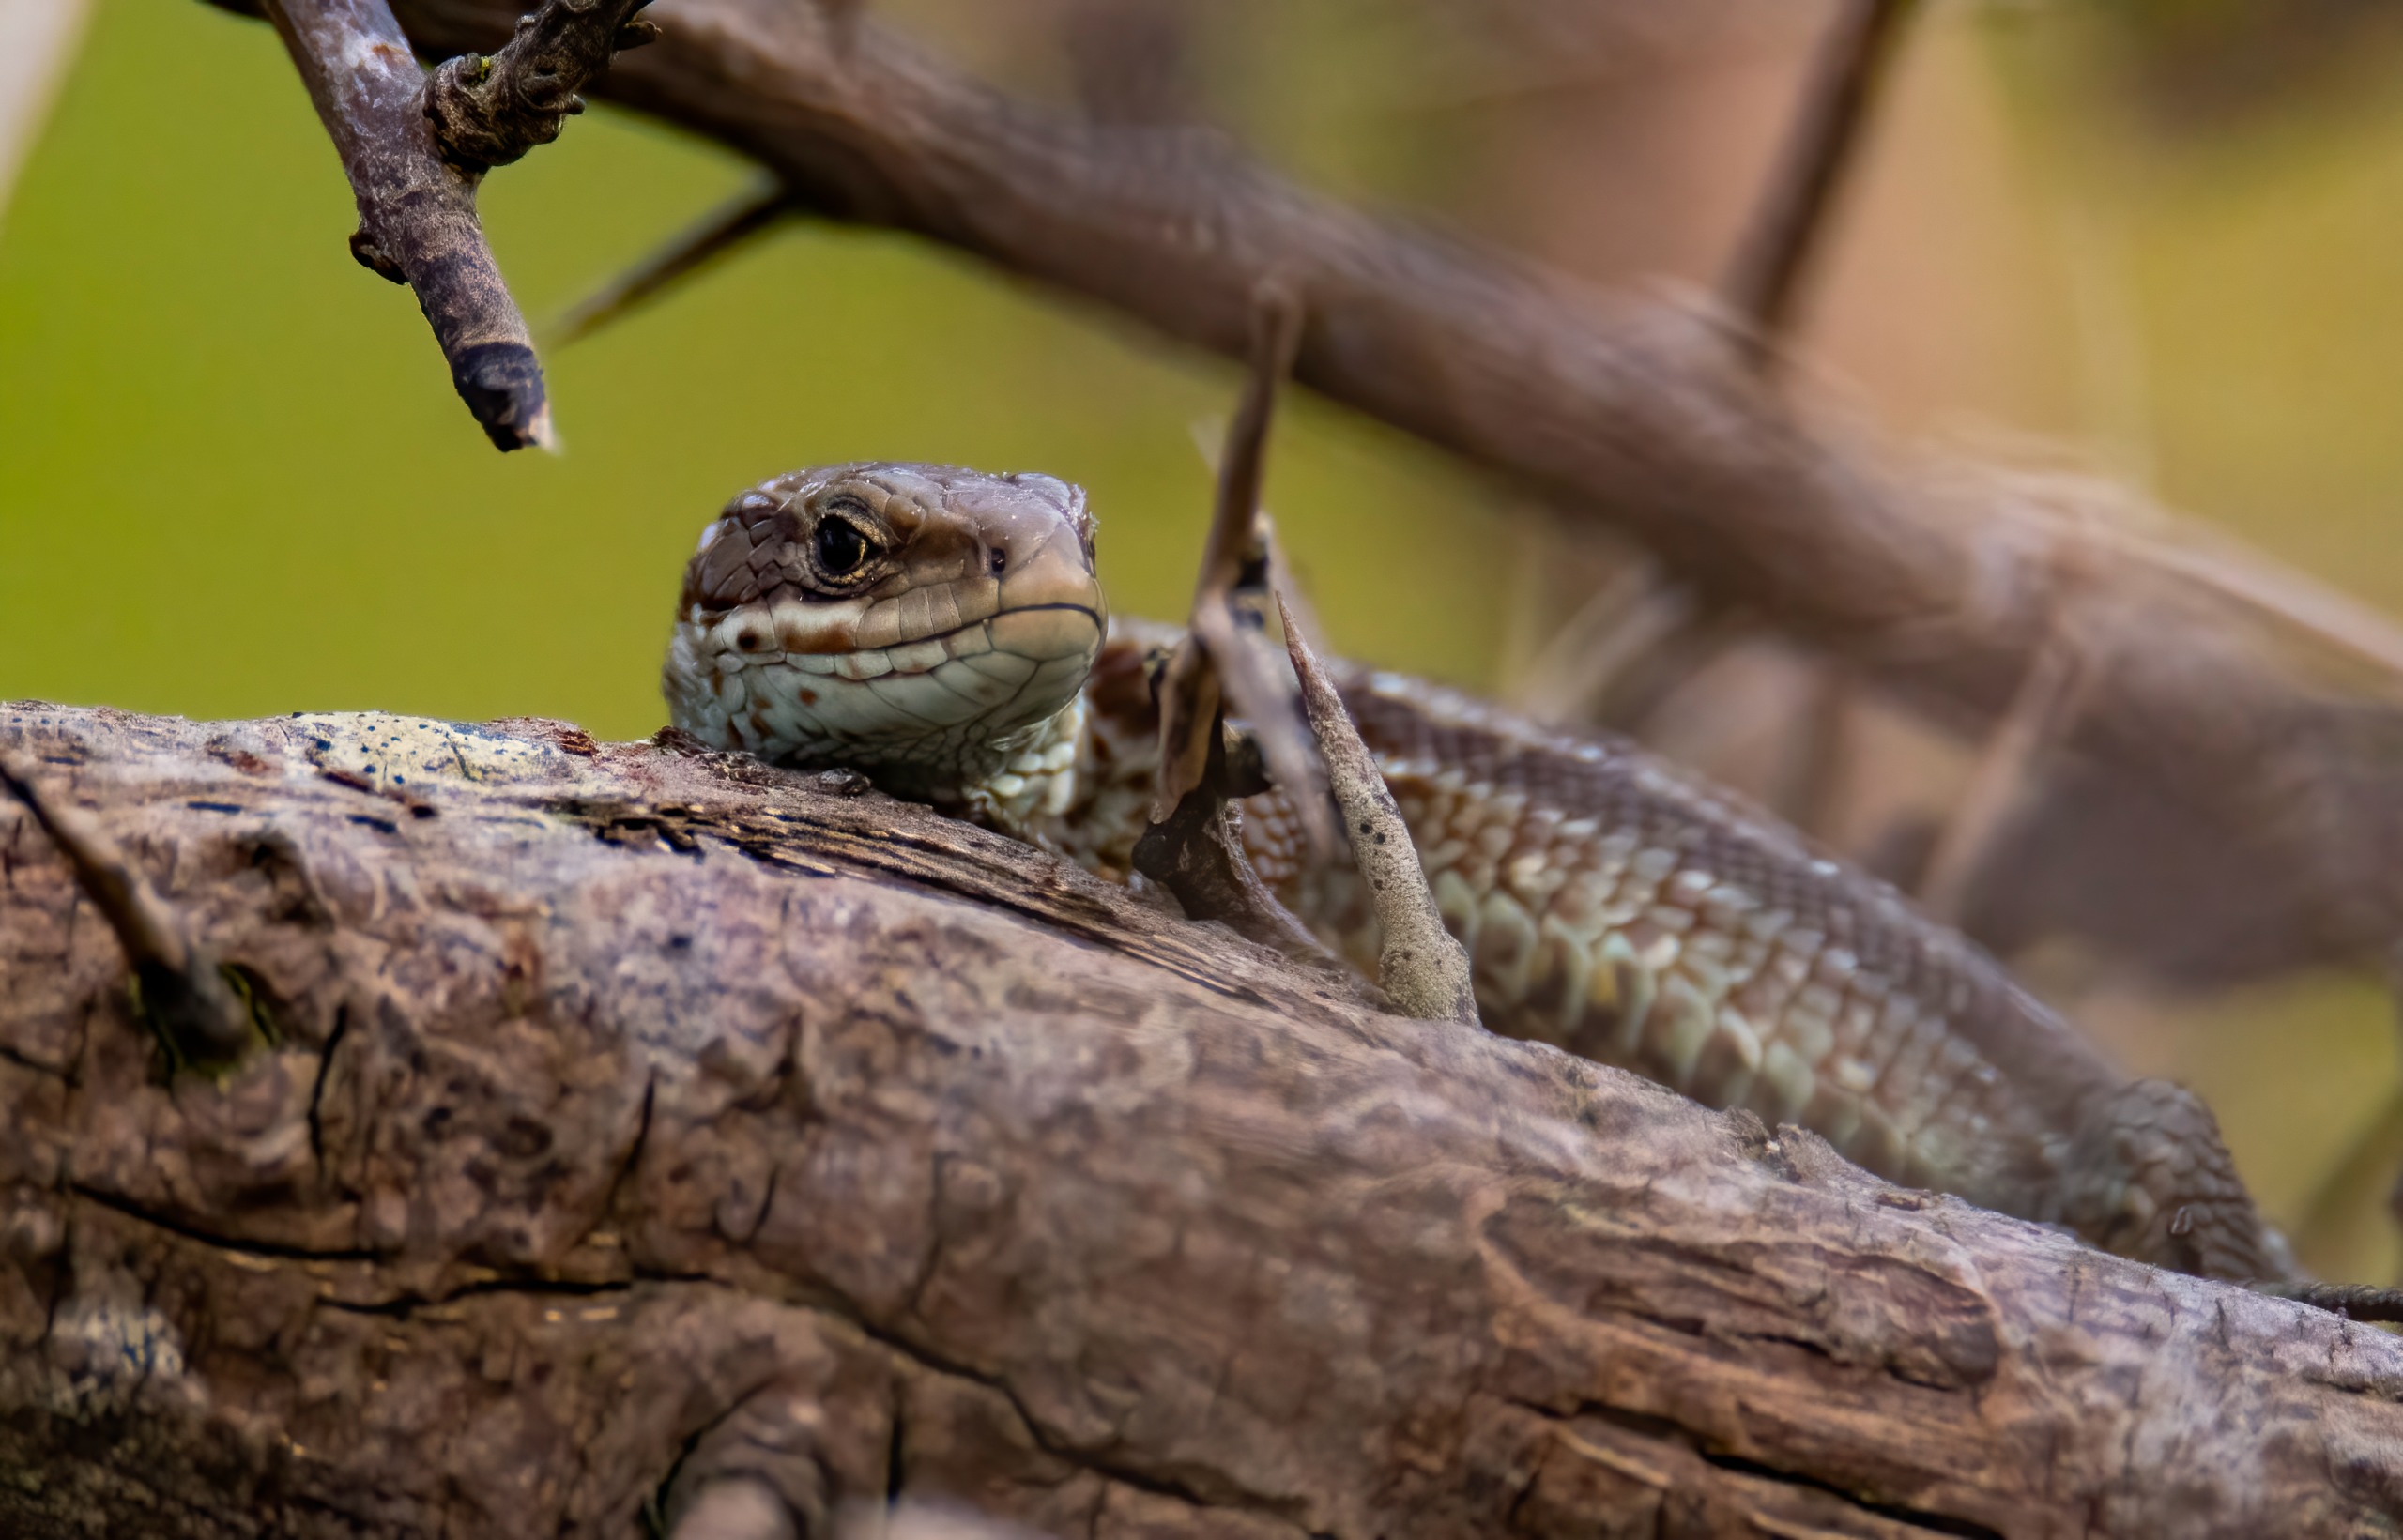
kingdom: Animalia
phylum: Chordata
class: Squamata
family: Lacertidae
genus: Zootoca
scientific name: Zootoca vivipara
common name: Skovfirben
